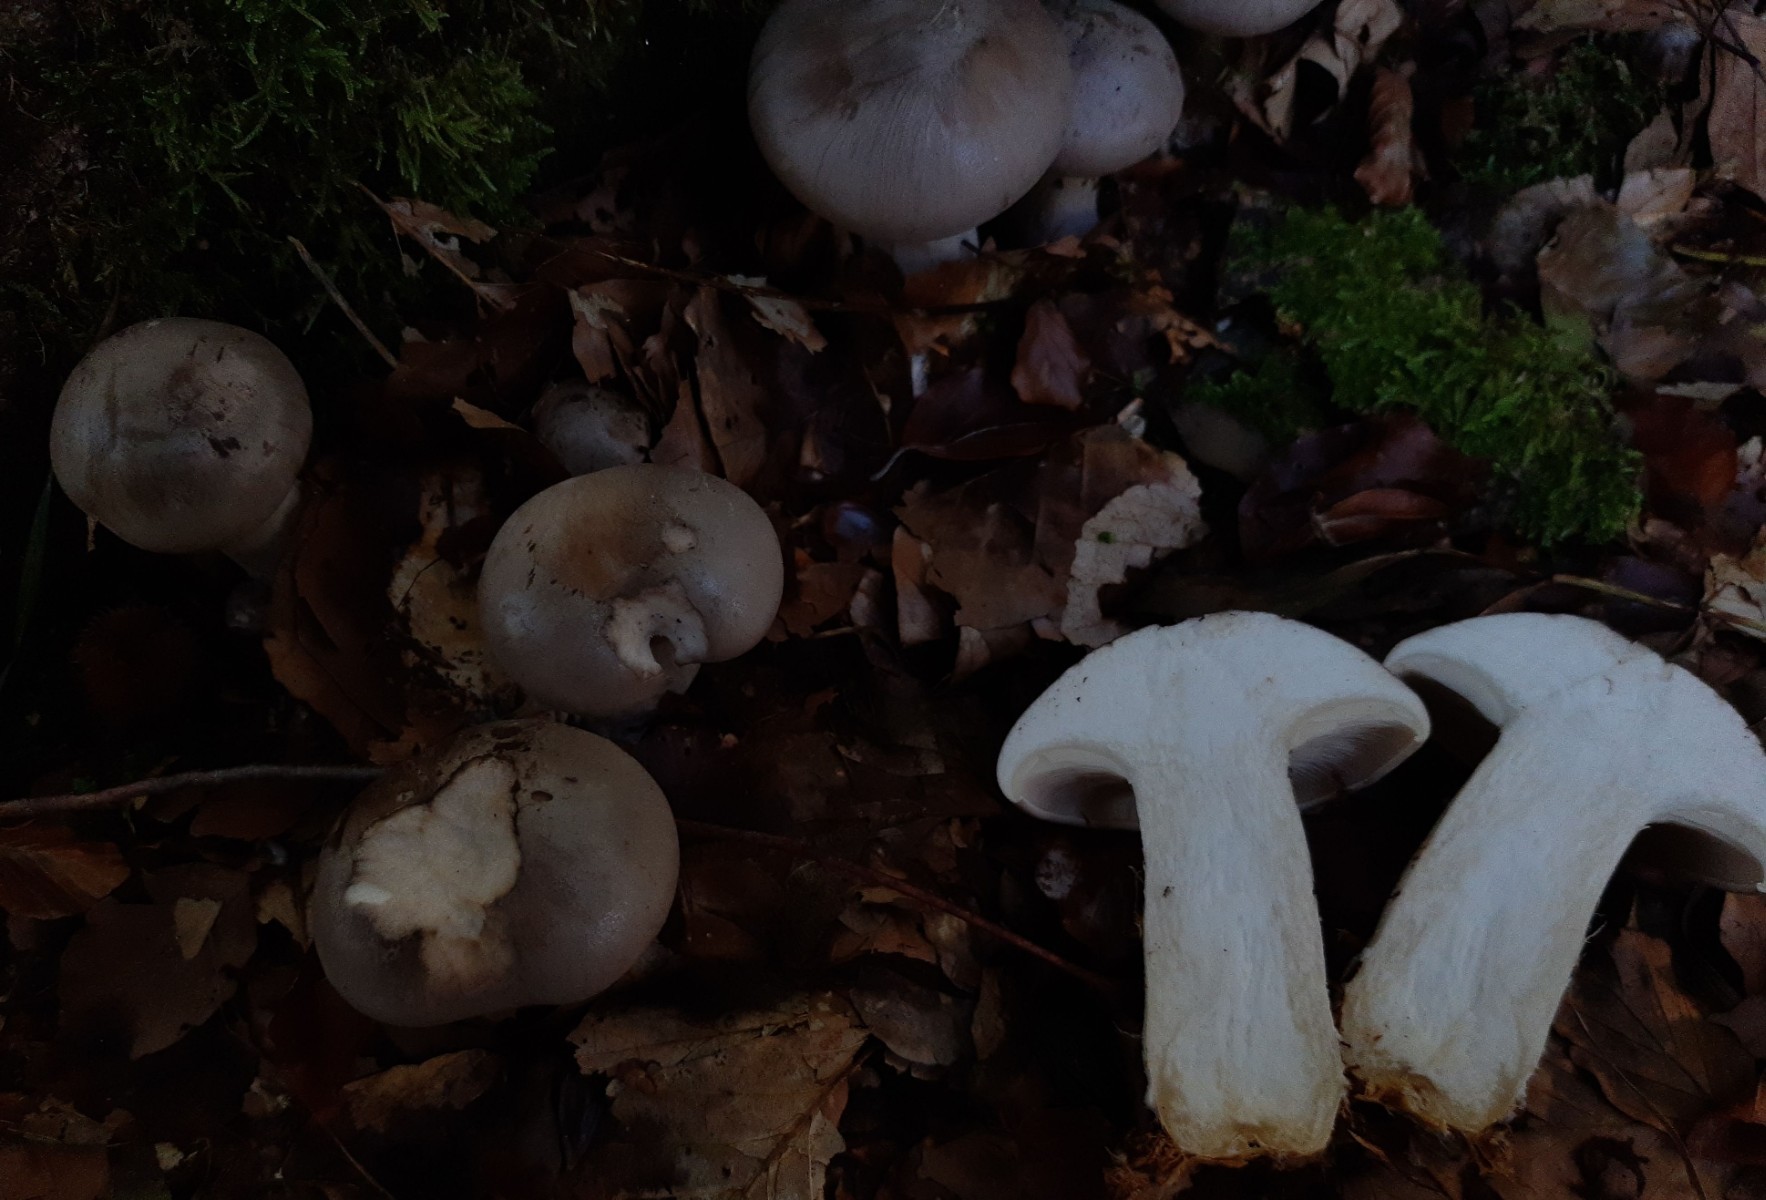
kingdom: Fungi
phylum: Basidiomycota
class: Agaricomycetes
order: Agaricales
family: Tricholomataceae
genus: Clitocybe
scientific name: Clitocybe nebularis
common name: tåge-tragthat
